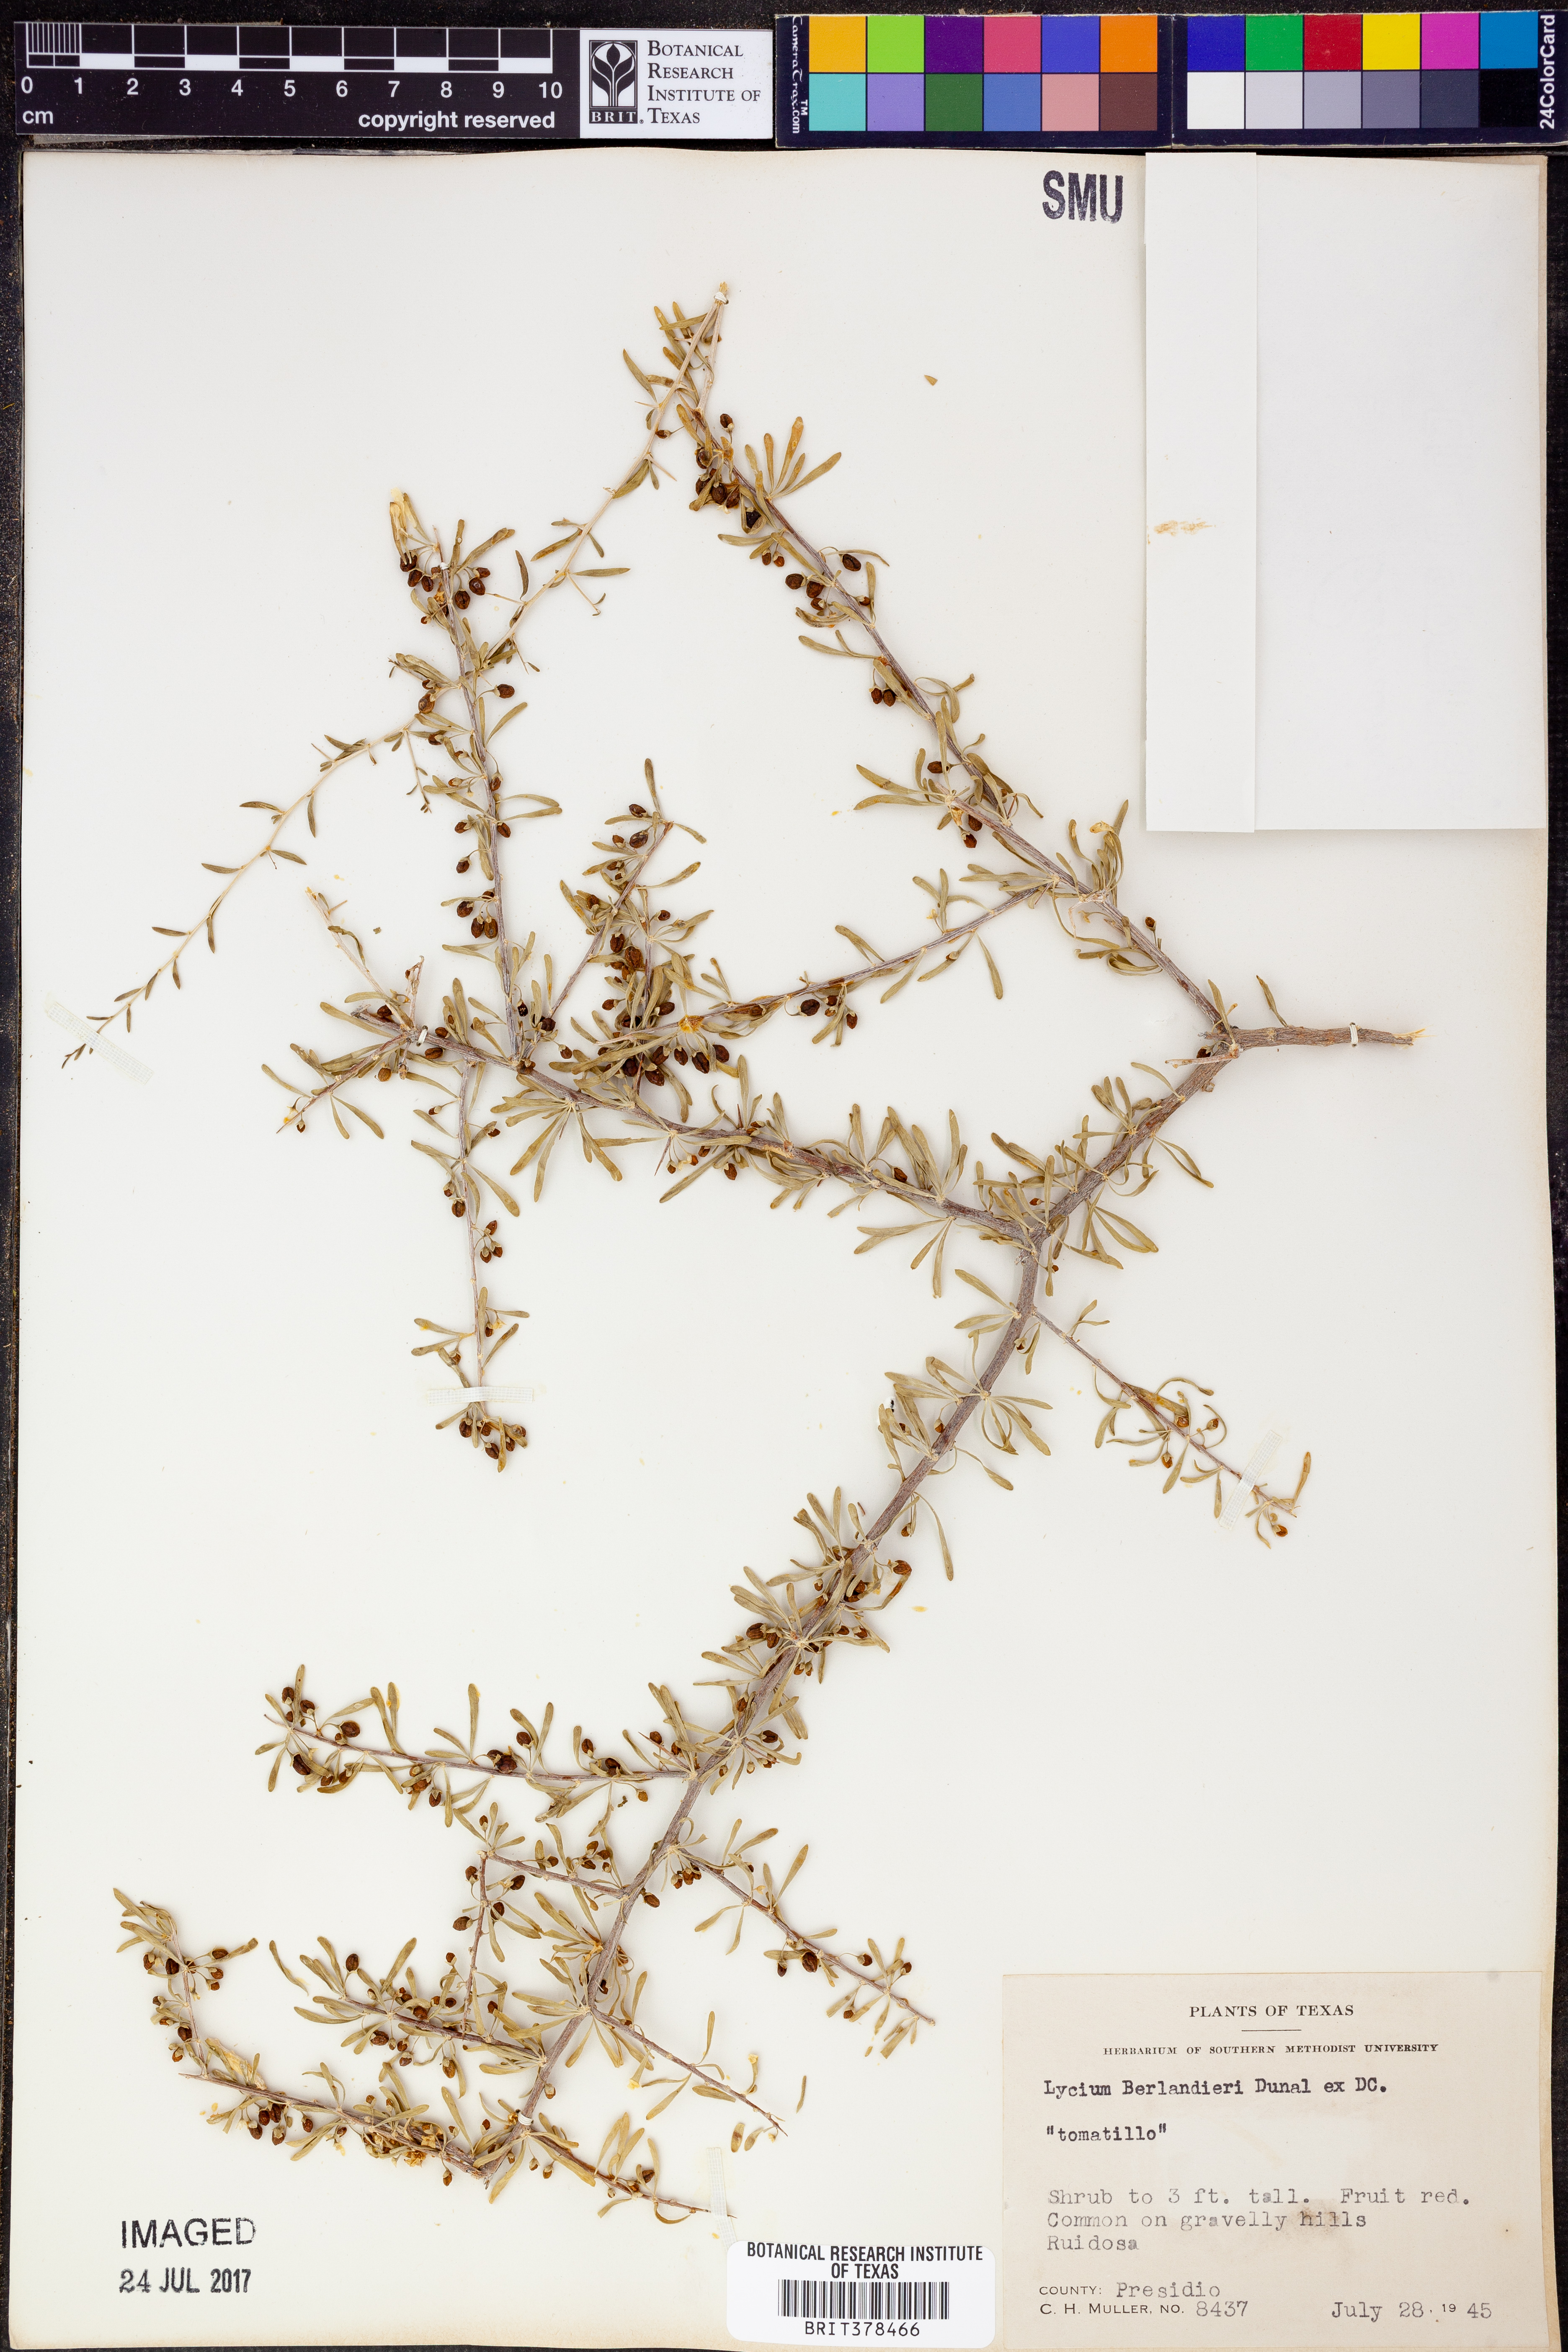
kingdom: Plantae
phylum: Tracheophyta
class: Magnoliopsida
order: Solanales
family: Solanaceae
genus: Lycium
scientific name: Lycium berlandieri
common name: Berlandier wolfberry
